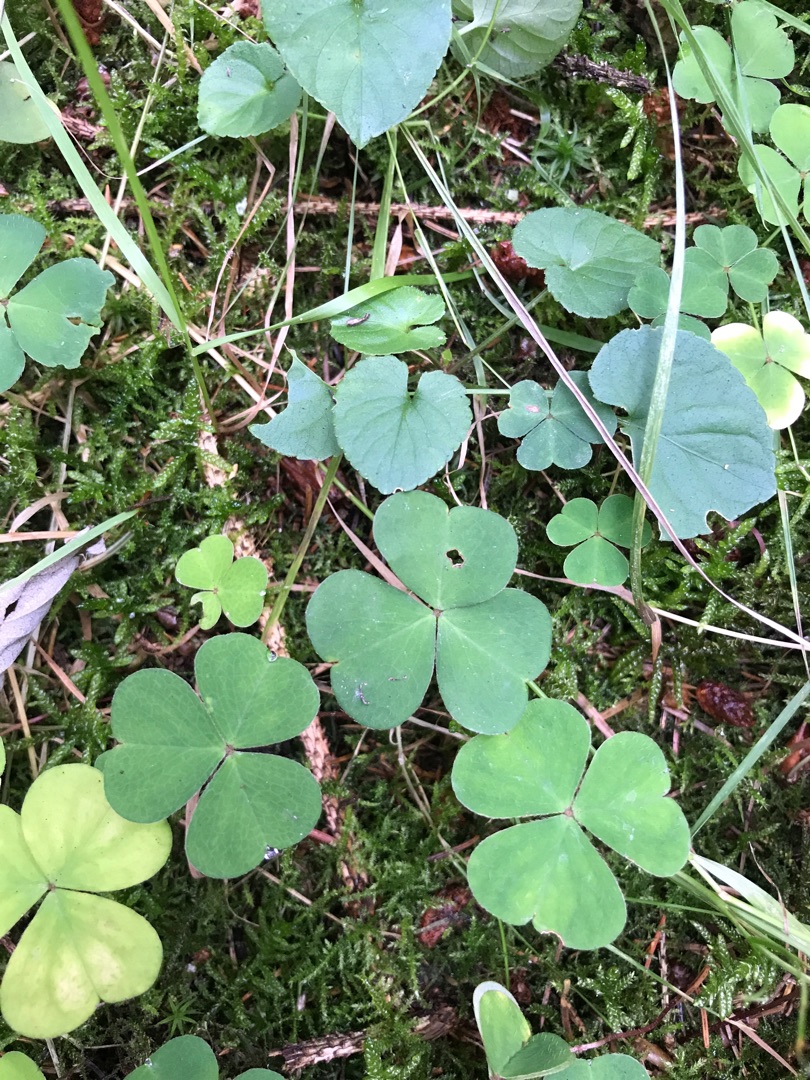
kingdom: Plantae
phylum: Tracheophyta
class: Magnoliopsida
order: Oxalidales
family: Oxalidaceae
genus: Oxalis
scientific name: Oxalis acetosella
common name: Skovsyre
